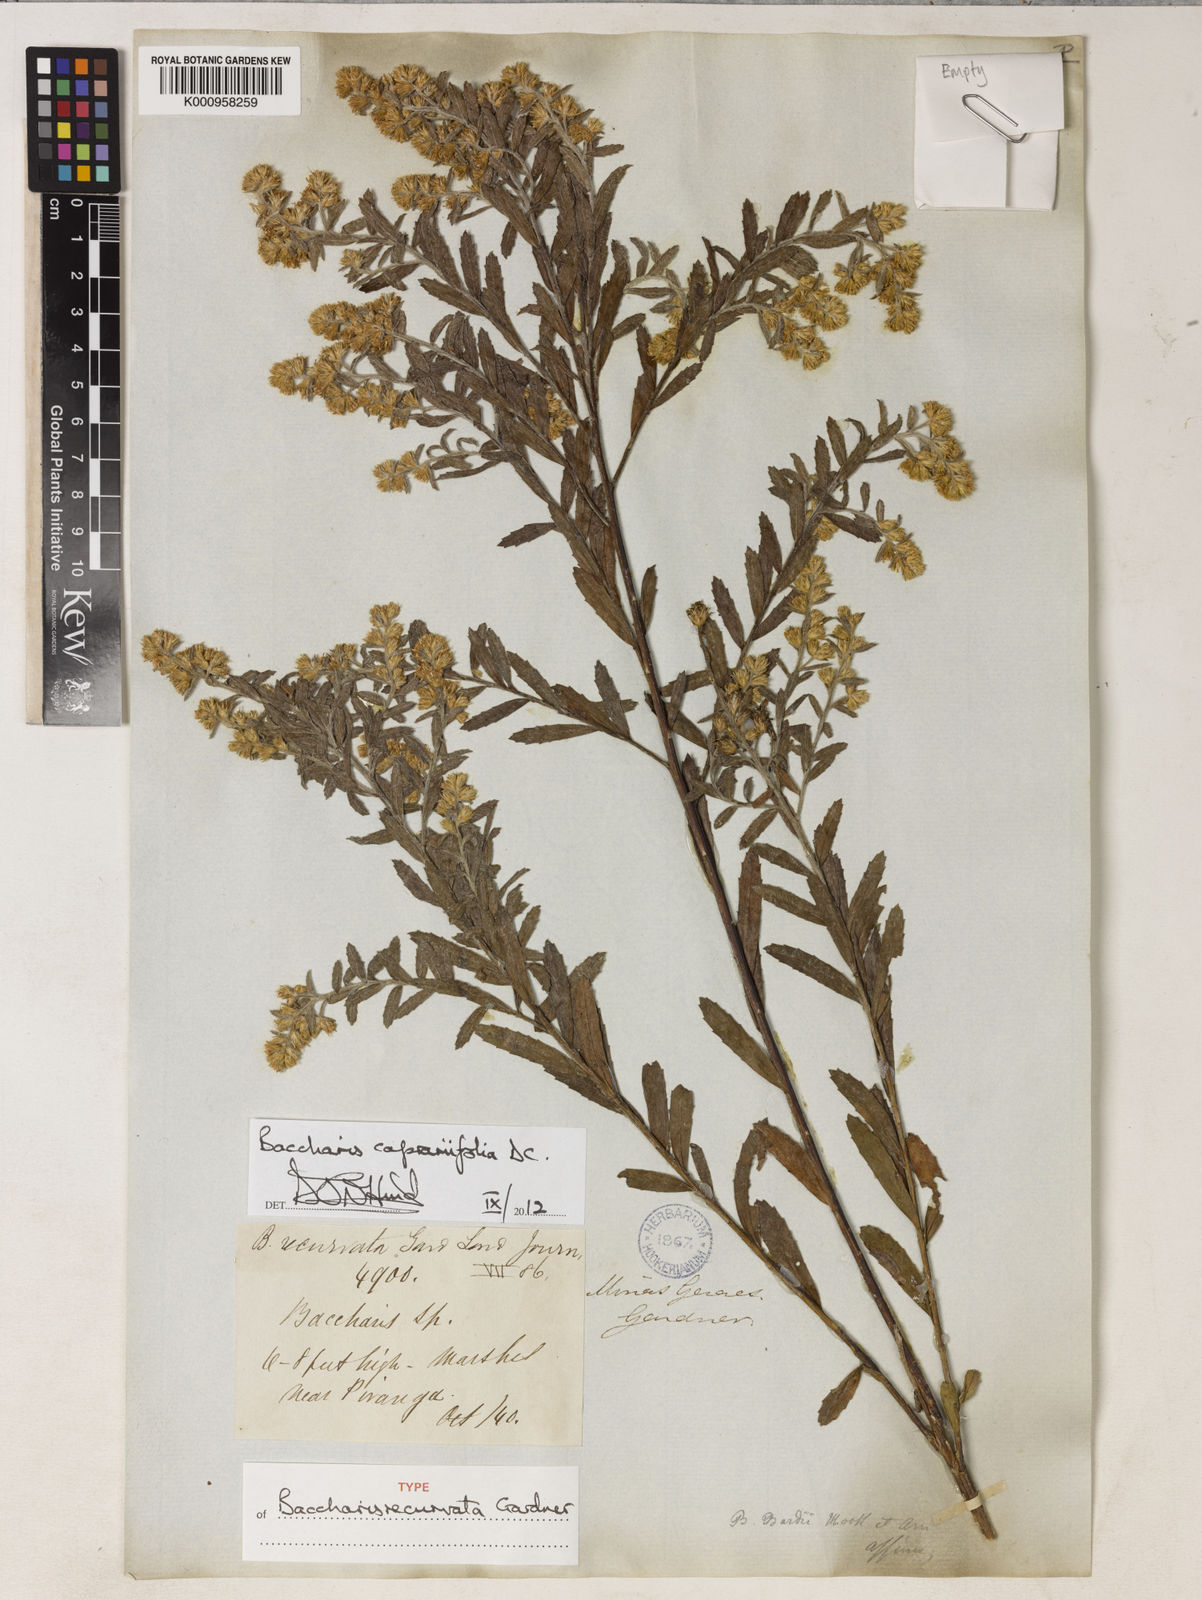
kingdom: Plantae
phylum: Tracheophyta
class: Magnoliopsida
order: Asterales
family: Asteraceae
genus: Baccharis
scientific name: Baccharis caprariifolia
